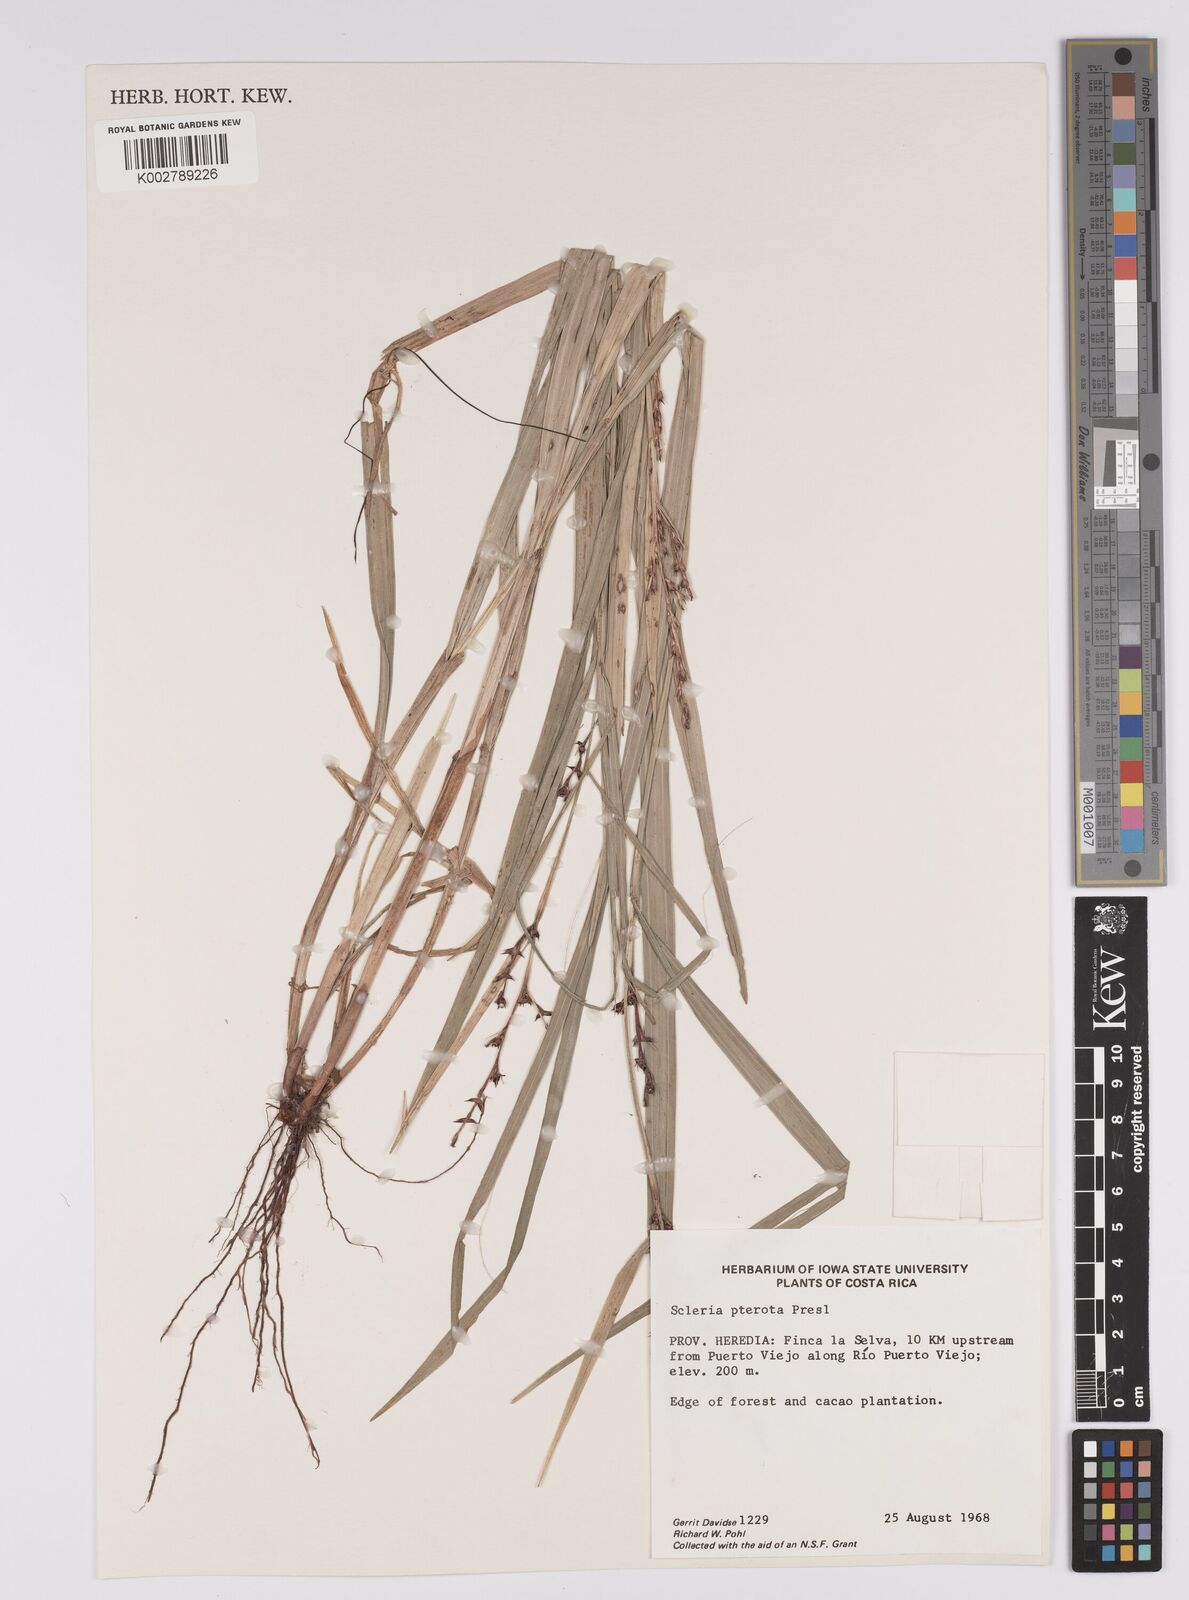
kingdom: Plantae
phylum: Tracheophyta
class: Liliopsida
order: Poales
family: Cyperaceae
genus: Scleria
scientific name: Scleria gaertneri
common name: Cortadera blanca
